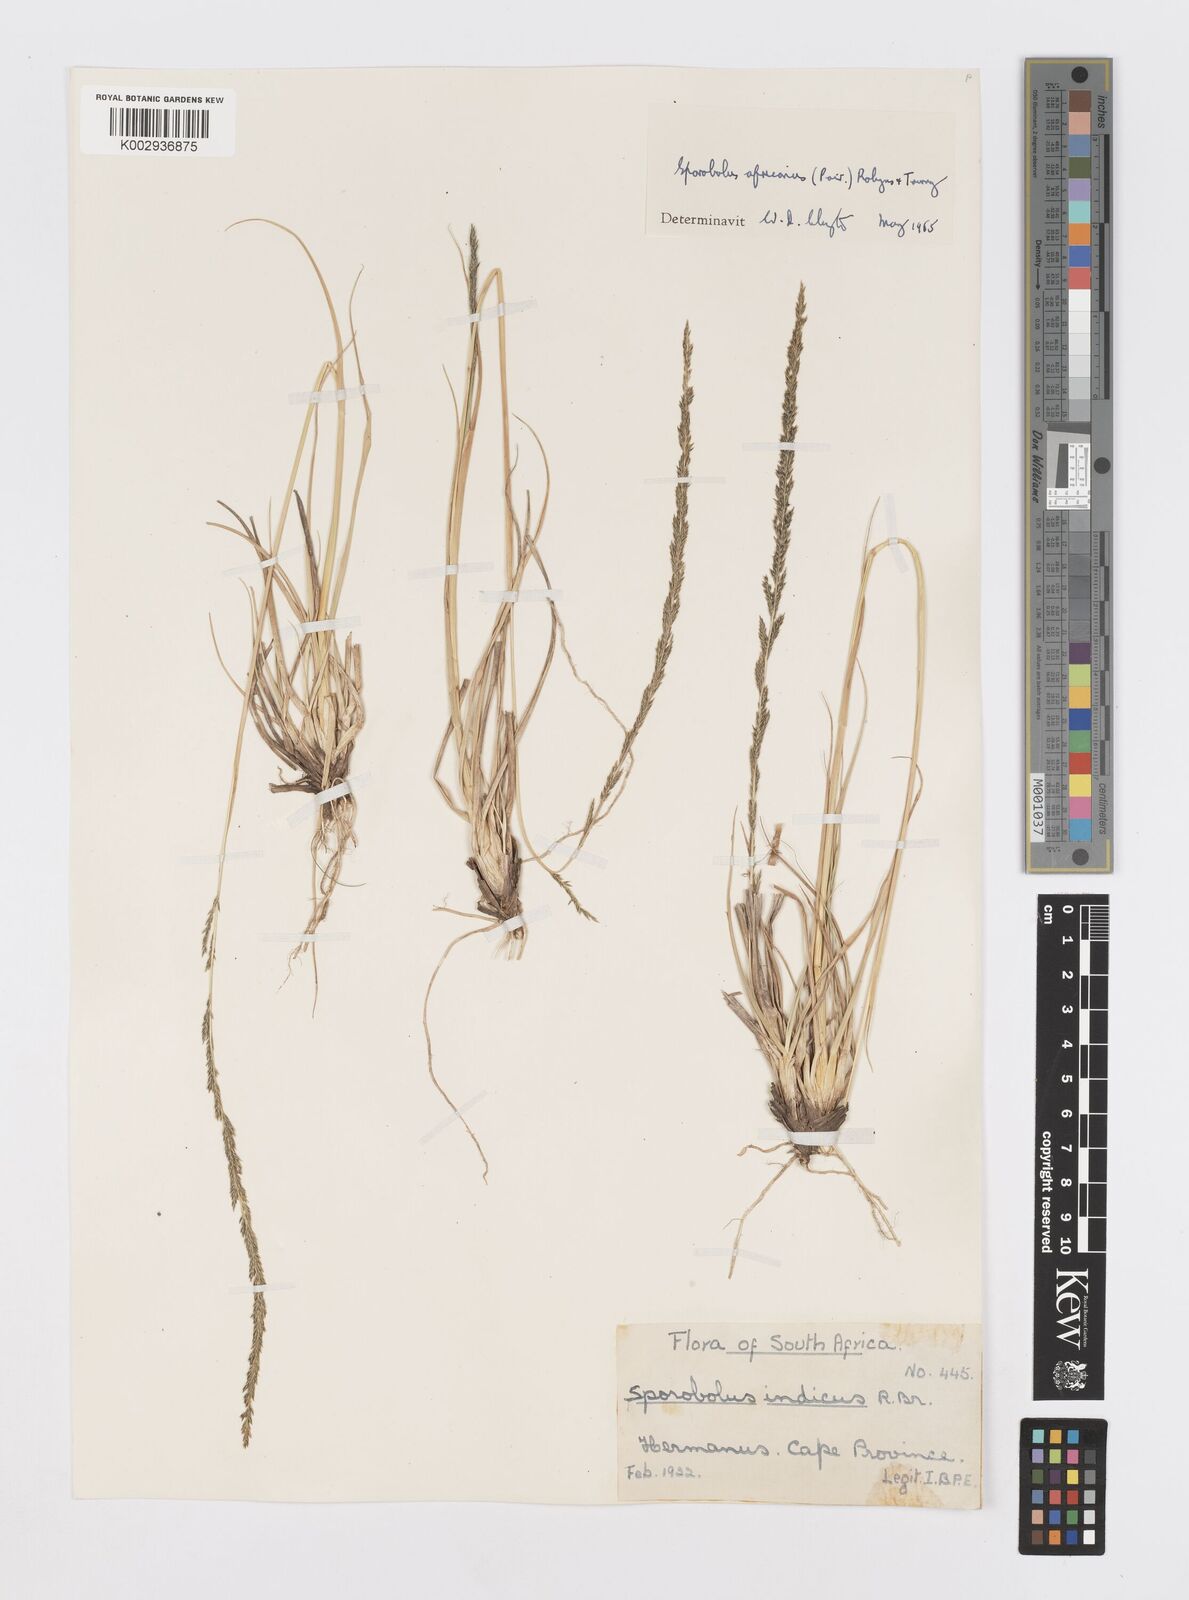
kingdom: Plantae
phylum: Tracheophyta
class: Liliopsida
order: Poales
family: Poaceae
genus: Sporobolus
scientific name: Sporobolus africanus
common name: African dropseed
